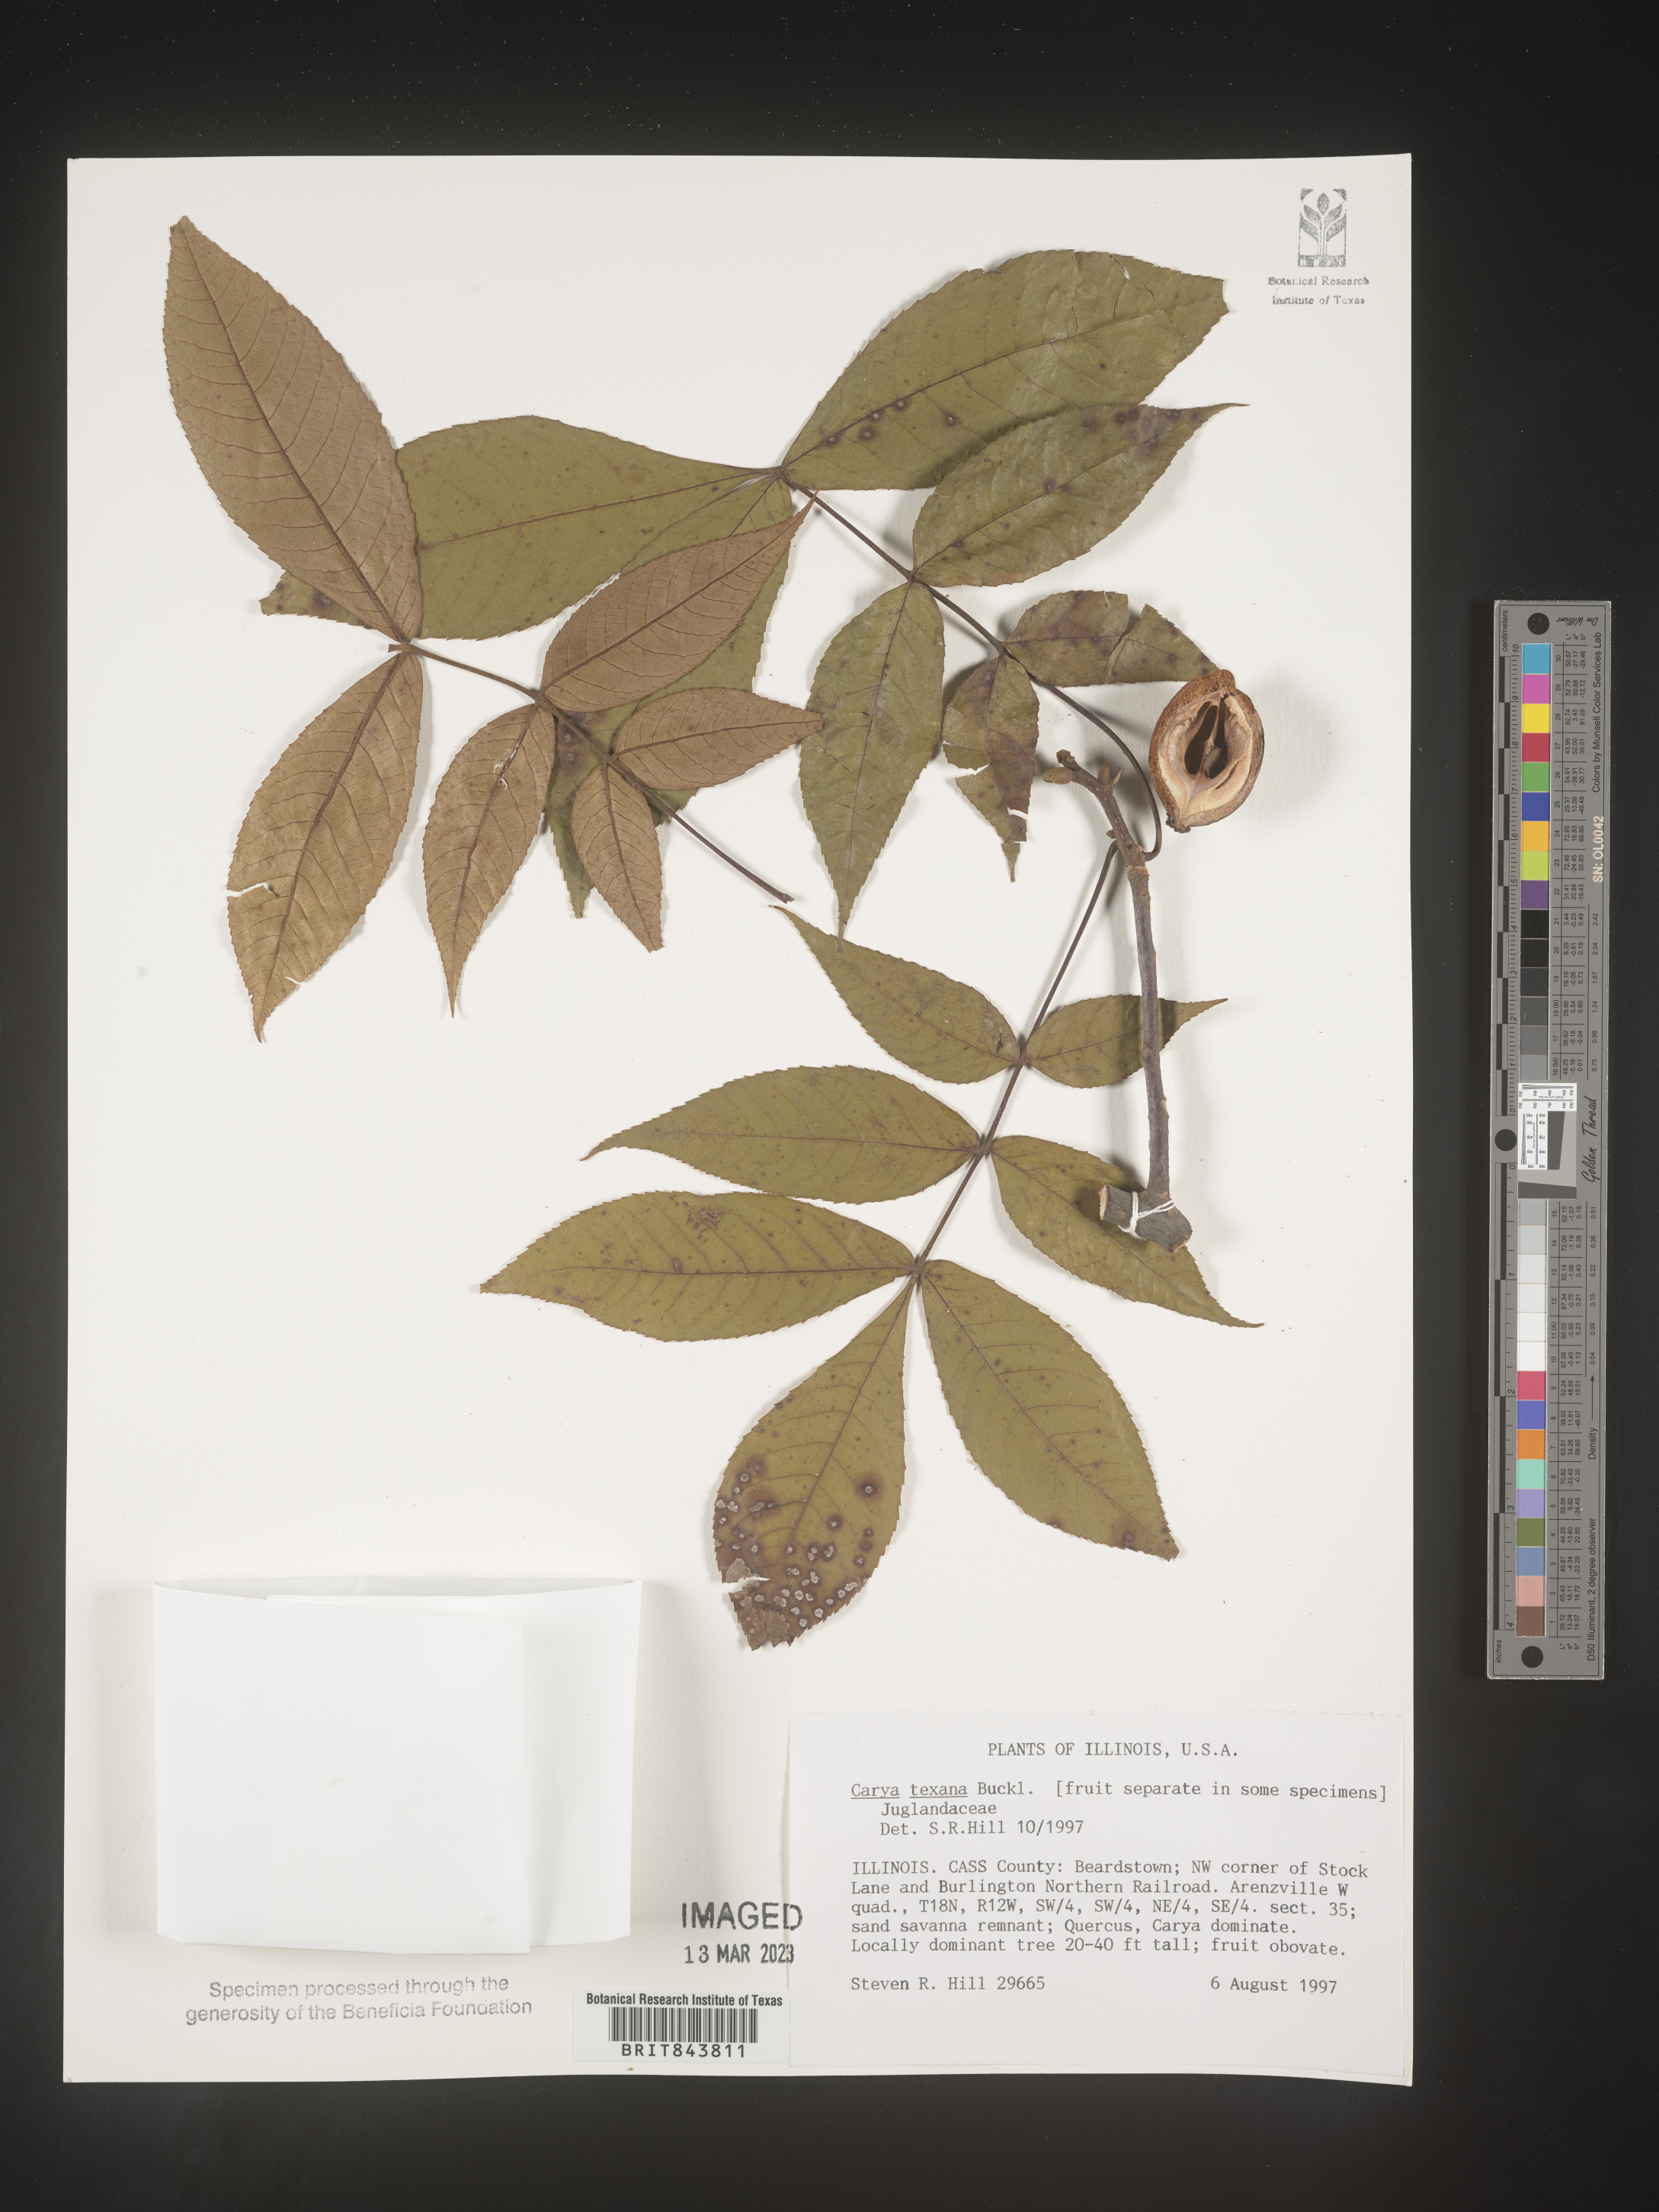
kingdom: Plantae
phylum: Tracheophyta
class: Magnoliopsida
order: Fagales
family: Juglandaceae
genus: Carya
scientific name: Carya texana
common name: Black hickory
